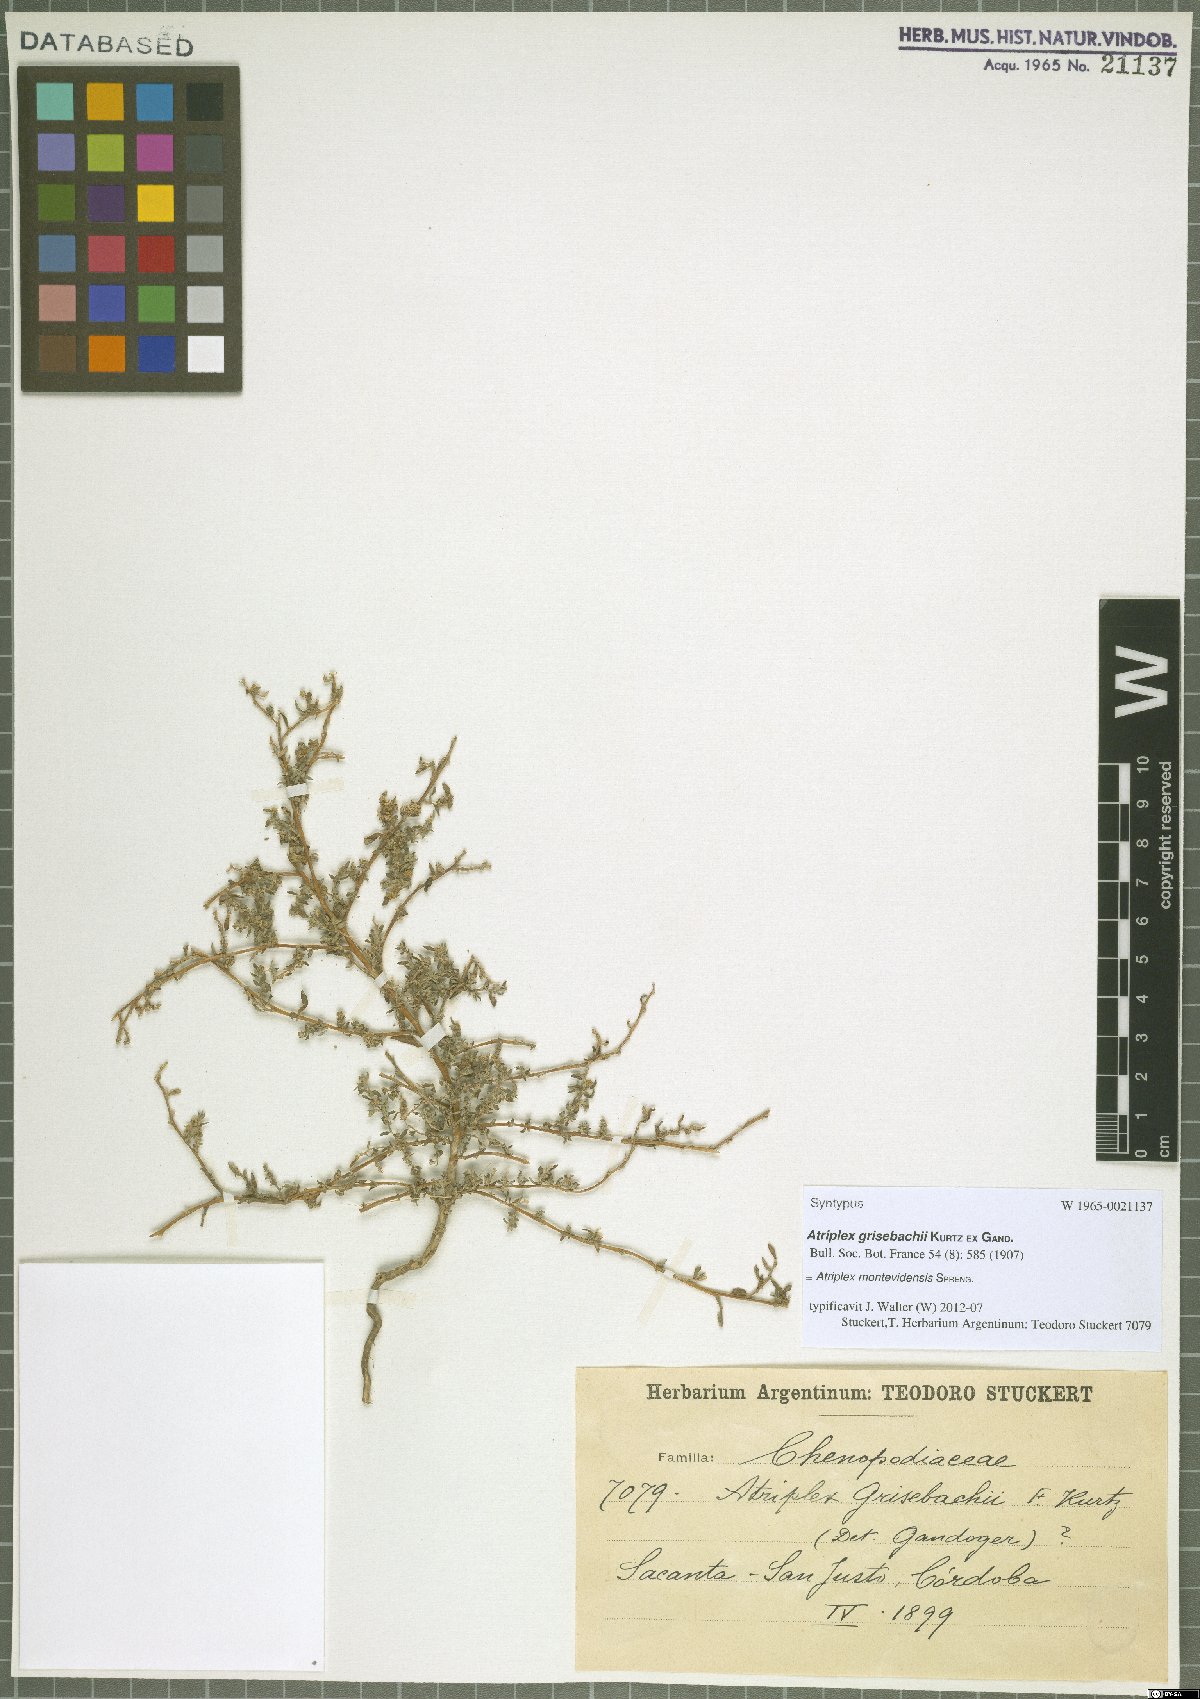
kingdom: Plantae
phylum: Tracheophyta
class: Magnoliopsida
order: Caryophyllales
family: Amaranthaceae
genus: Atriplex
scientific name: Atriplex montevidensis
